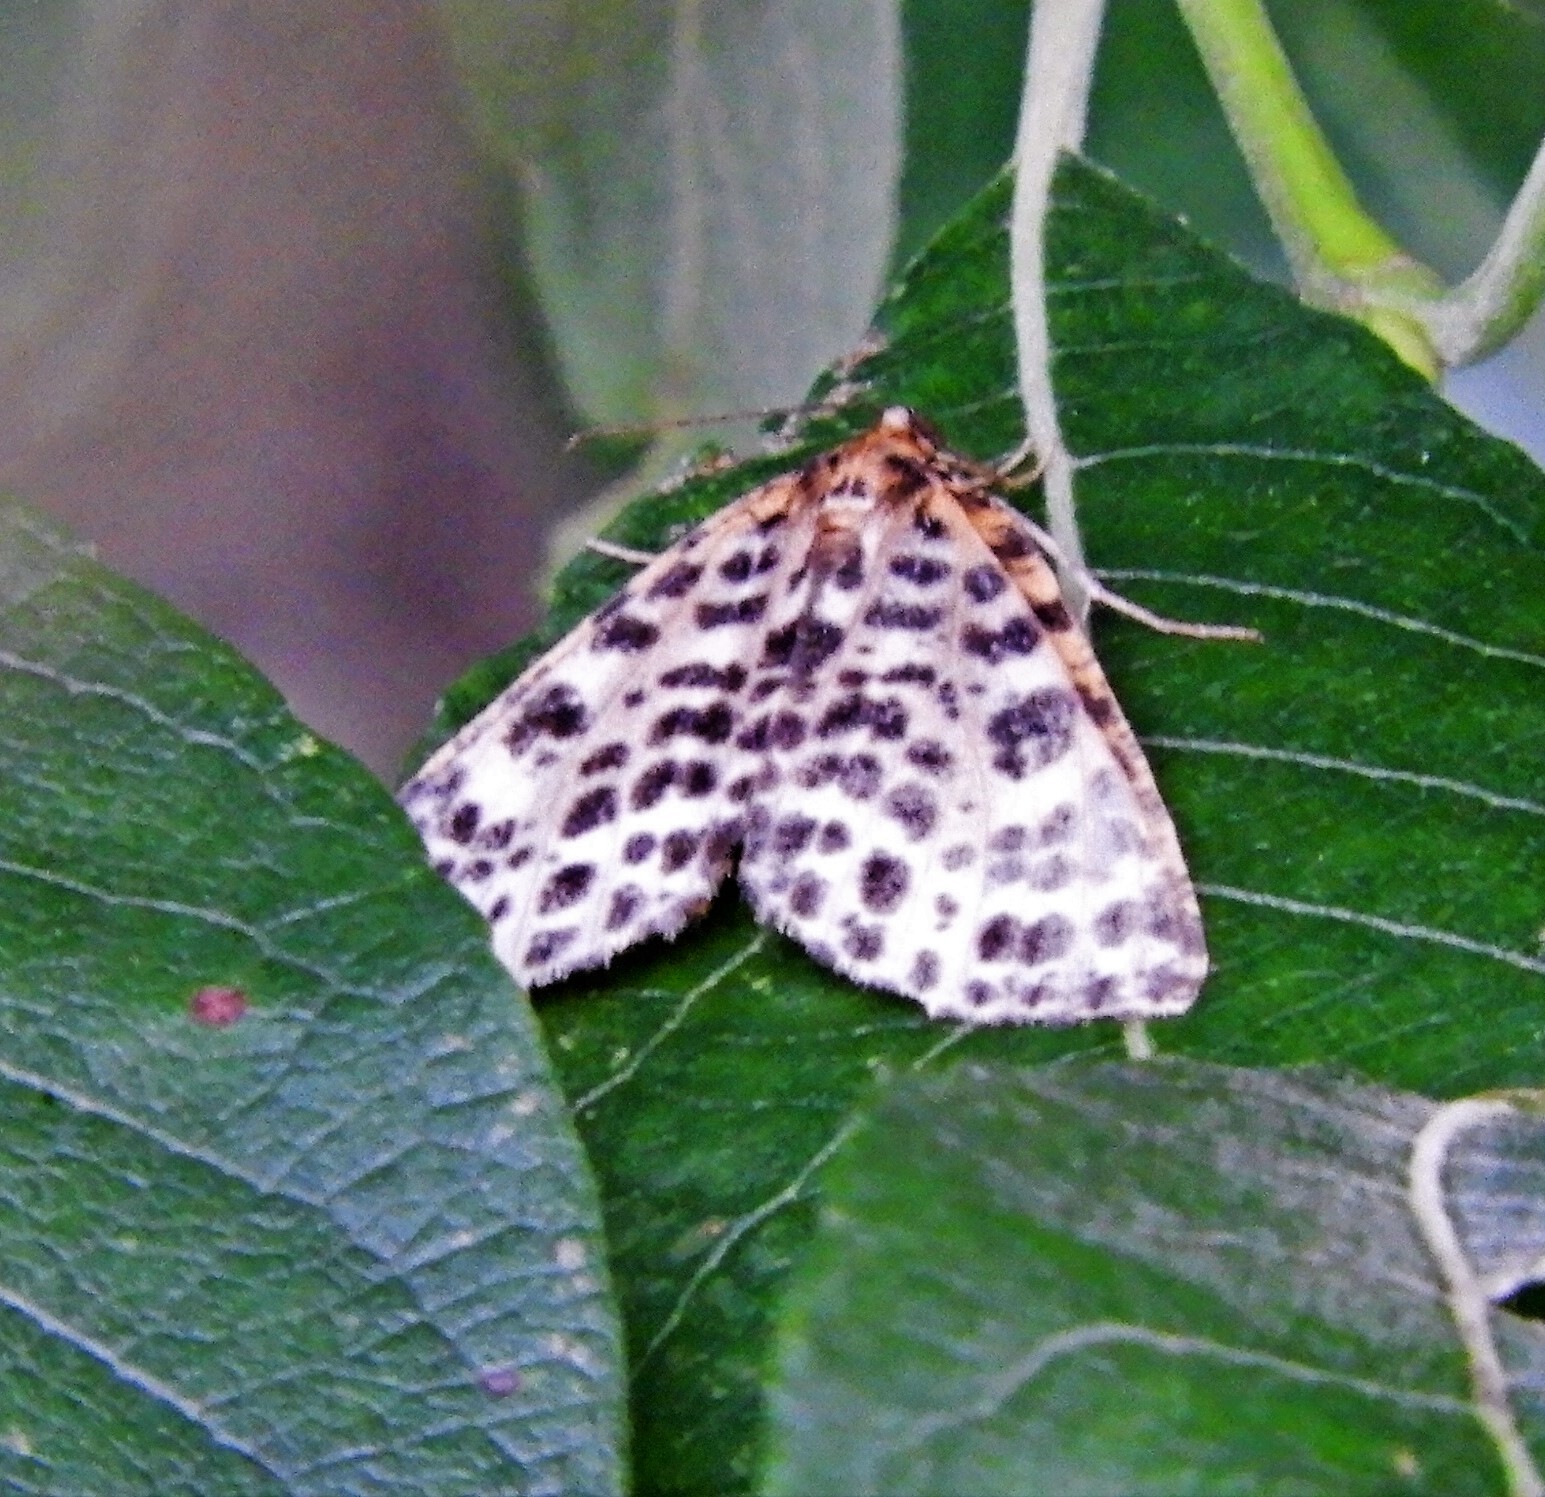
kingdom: Animalia
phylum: Arthropoda
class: Insecta
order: Lepidoptera
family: Geometridae
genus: Arichanna
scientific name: Arichanna melanaria
